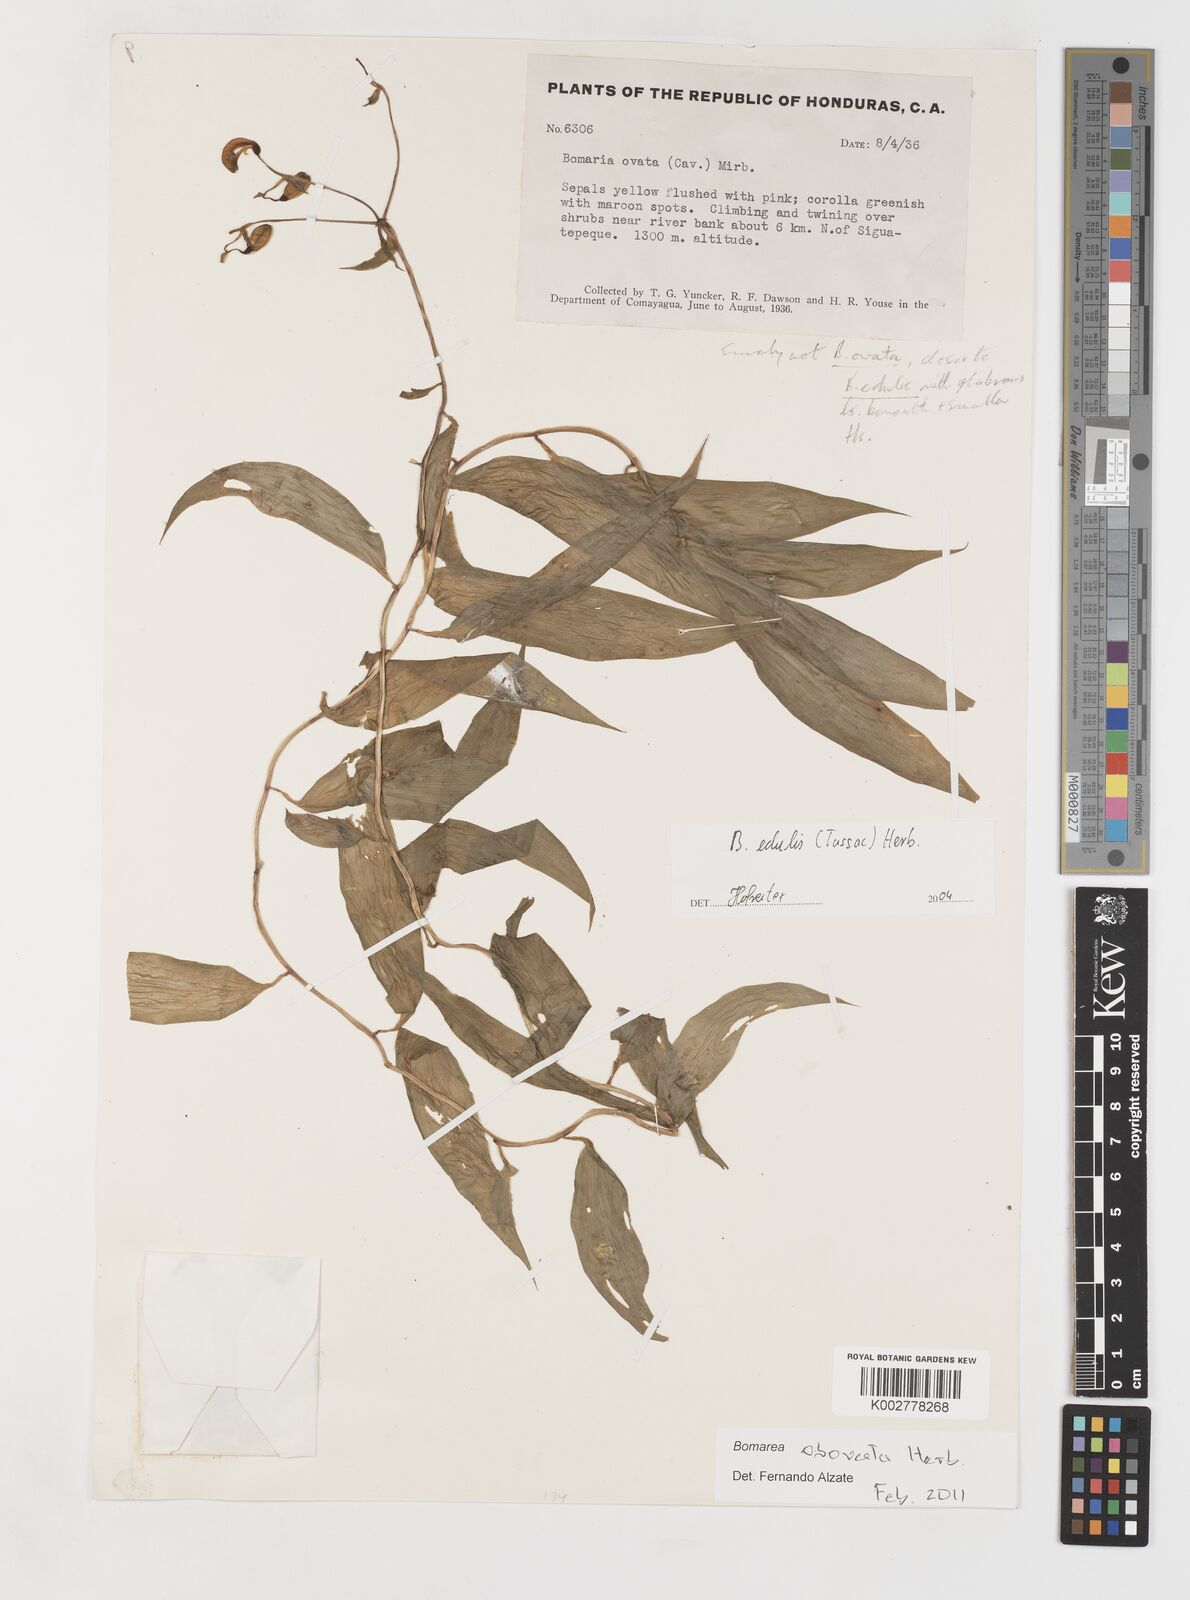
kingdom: Plantae
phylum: Tracheophyta
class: Liliopsida
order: Liliales
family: Alstroemeriaceae
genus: Bomarea
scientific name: Bomarea edulis
